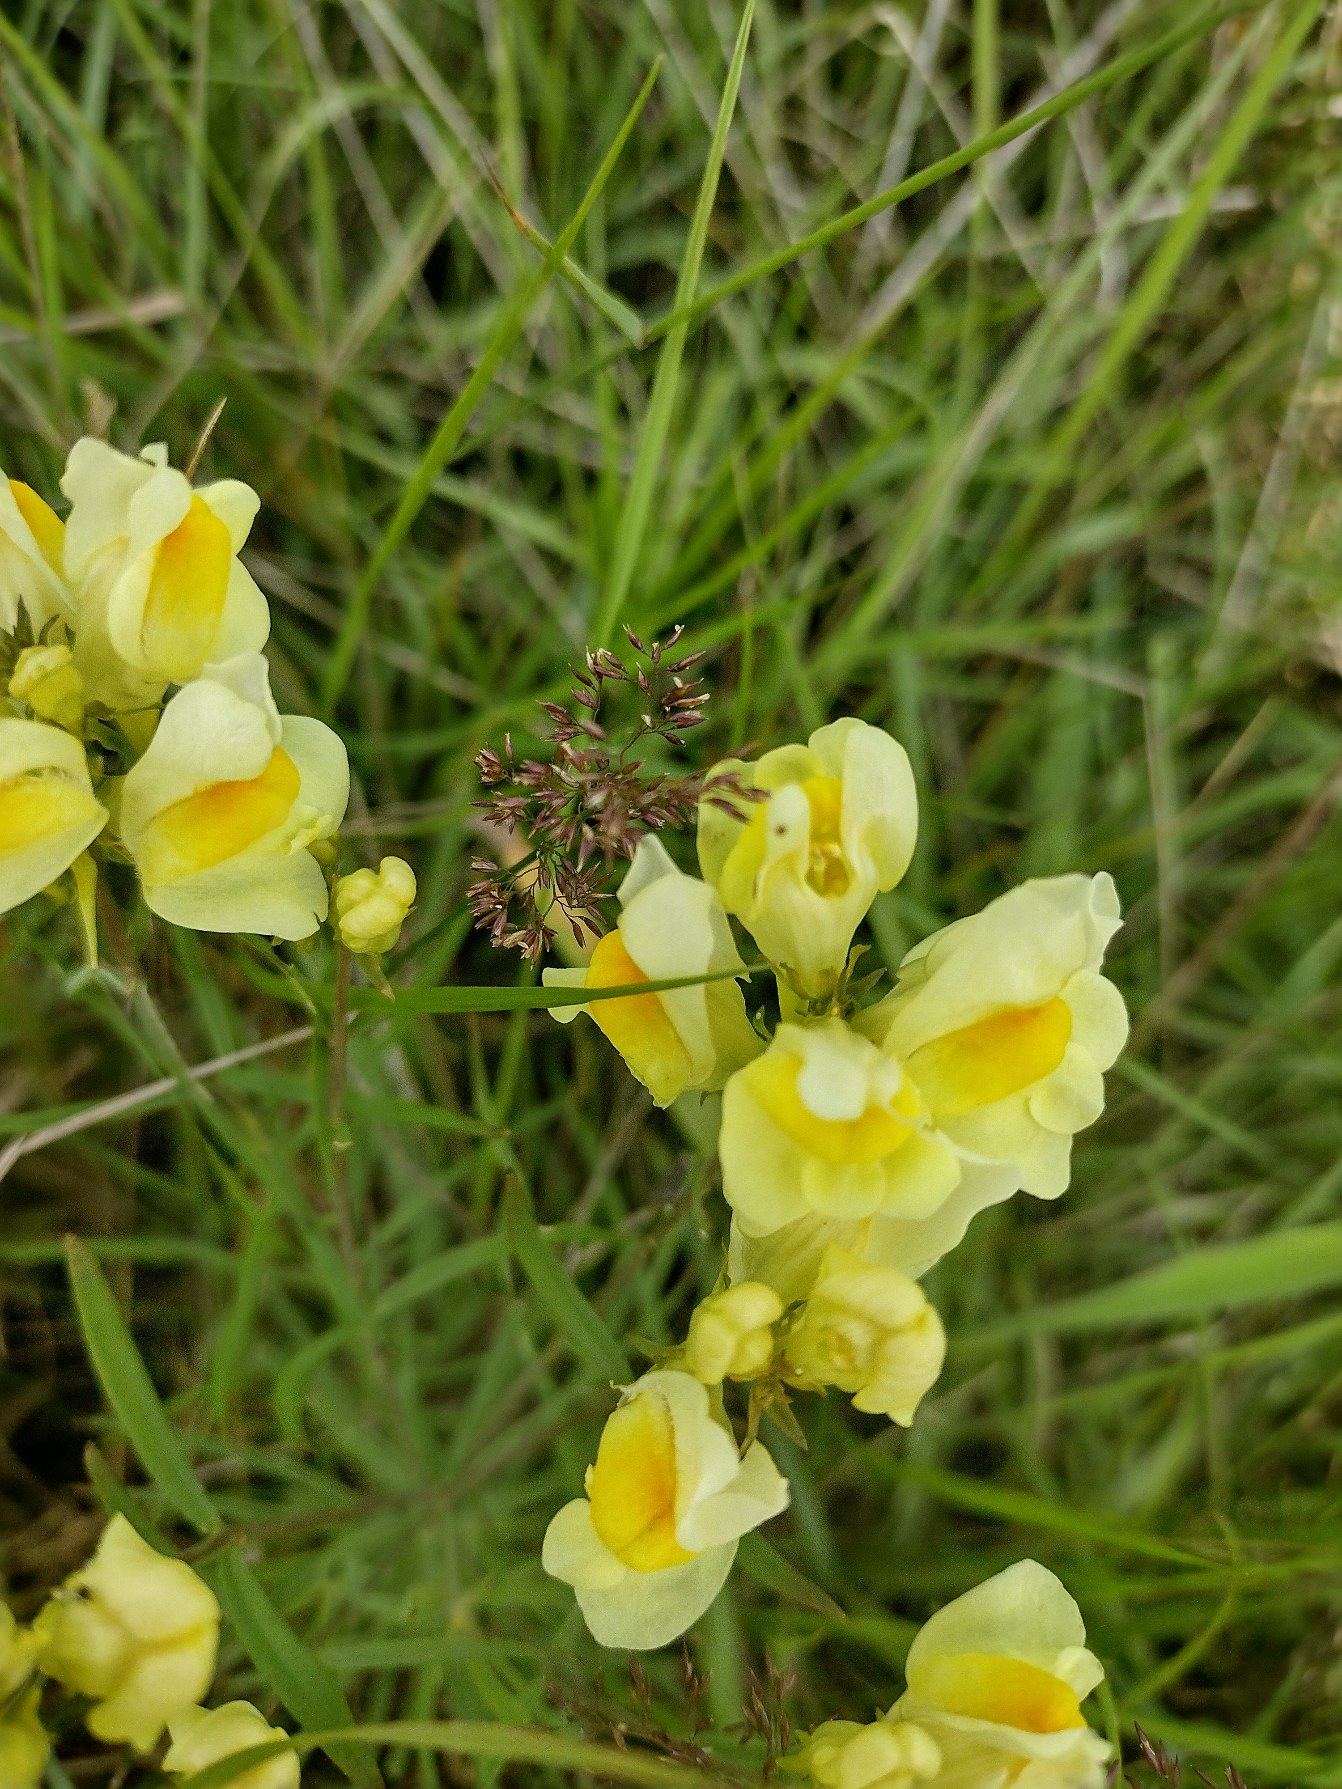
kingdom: Plantae
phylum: Tracheophyta
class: Magnoliopsida
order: Lamiales
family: Plantaginaceae
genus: Linaria
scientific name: Linaria vulgaris
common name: Almindelig torskemund
